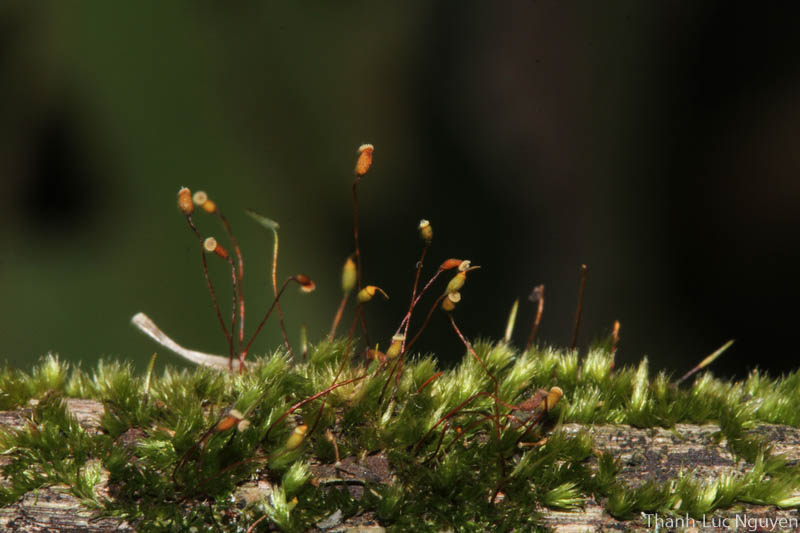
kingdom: Plantae
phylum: Bryophyta
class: Bryopsida
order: Hypnales
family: Sematophyllaceae
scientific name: Sematophyllaceae
